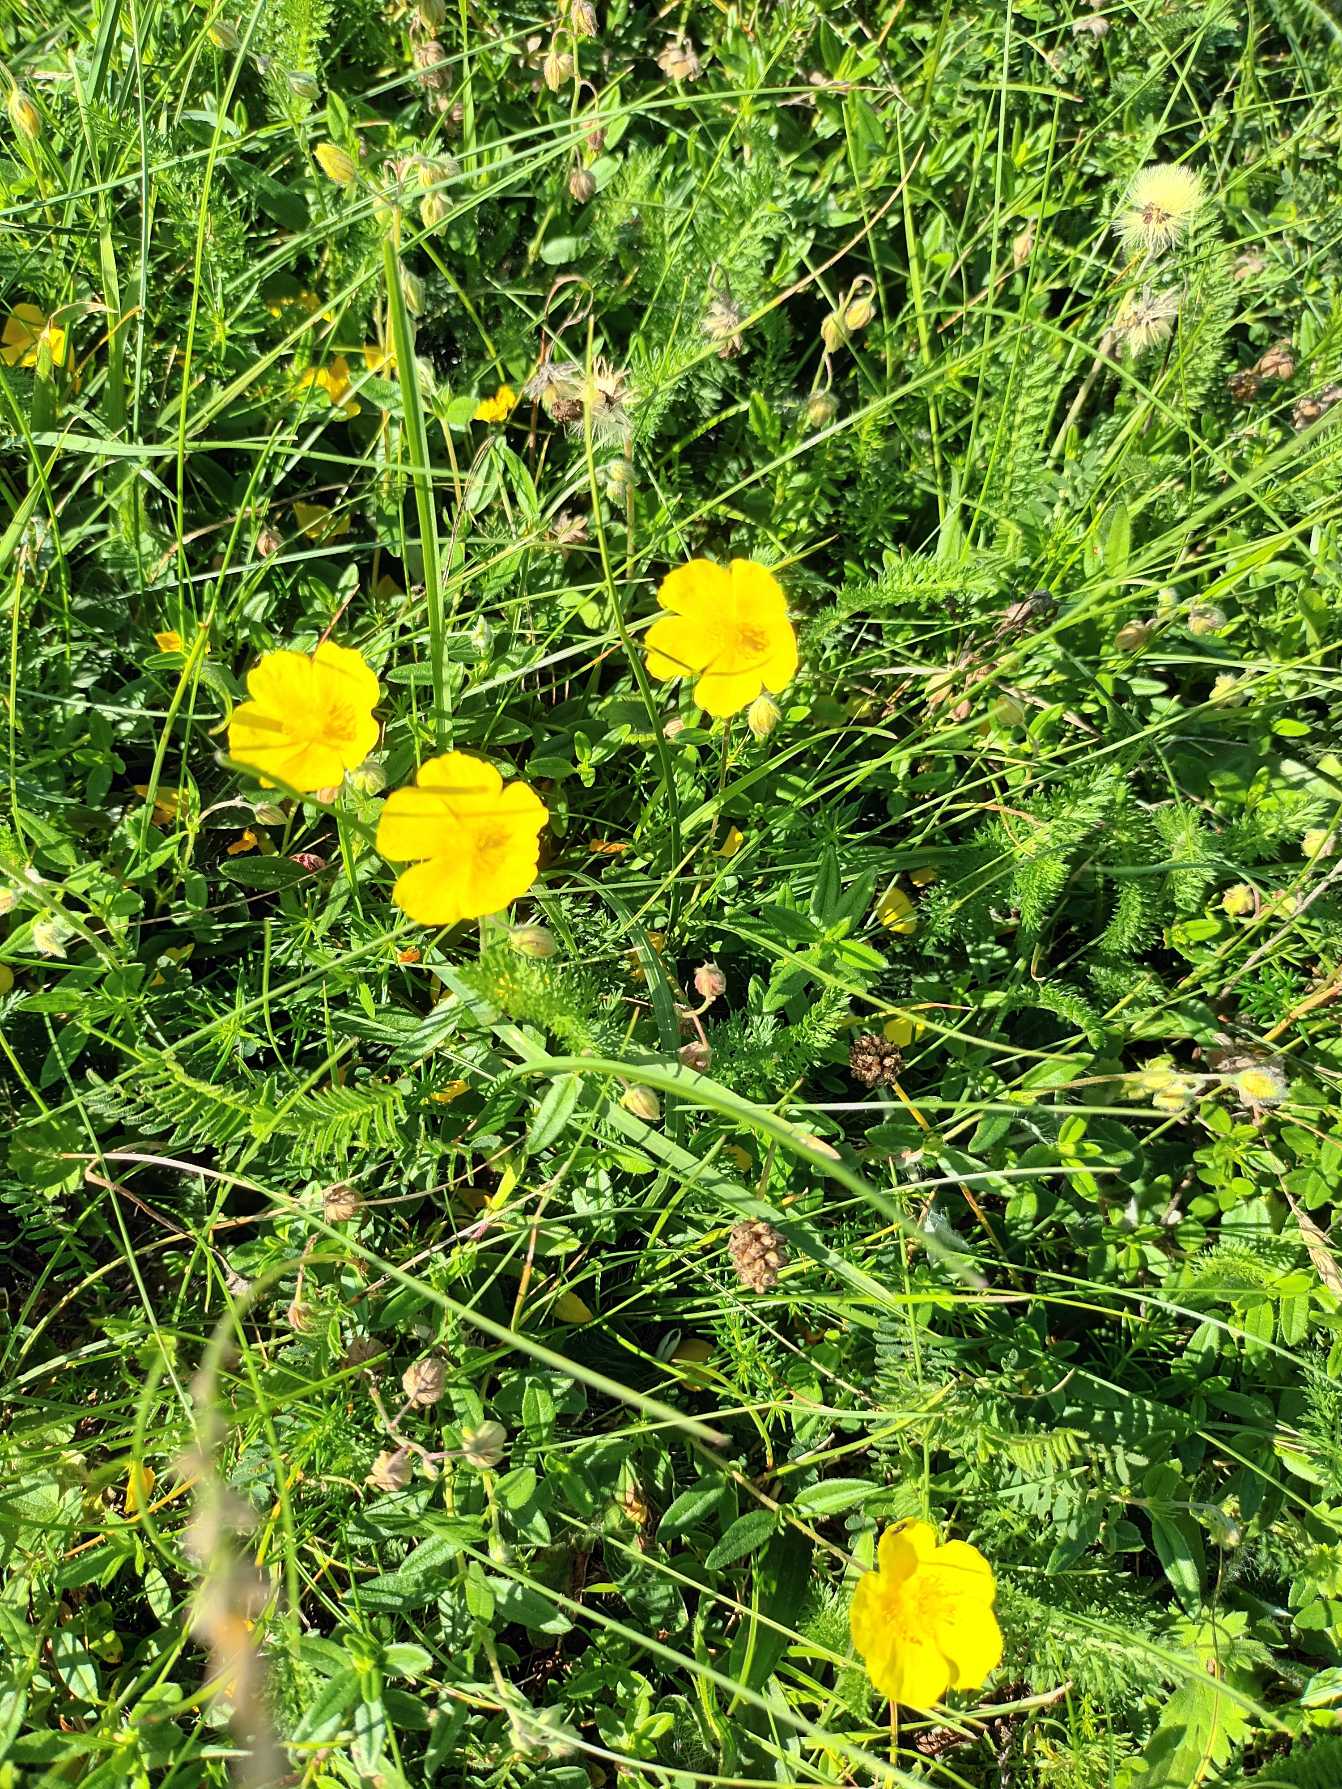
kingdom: Plantae
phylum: Tracheophyta
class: Magnoliopsida
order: Malvales
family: Cistaceae
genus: Helianthemum
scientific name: Helianthemum nummularium
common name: Soløje
